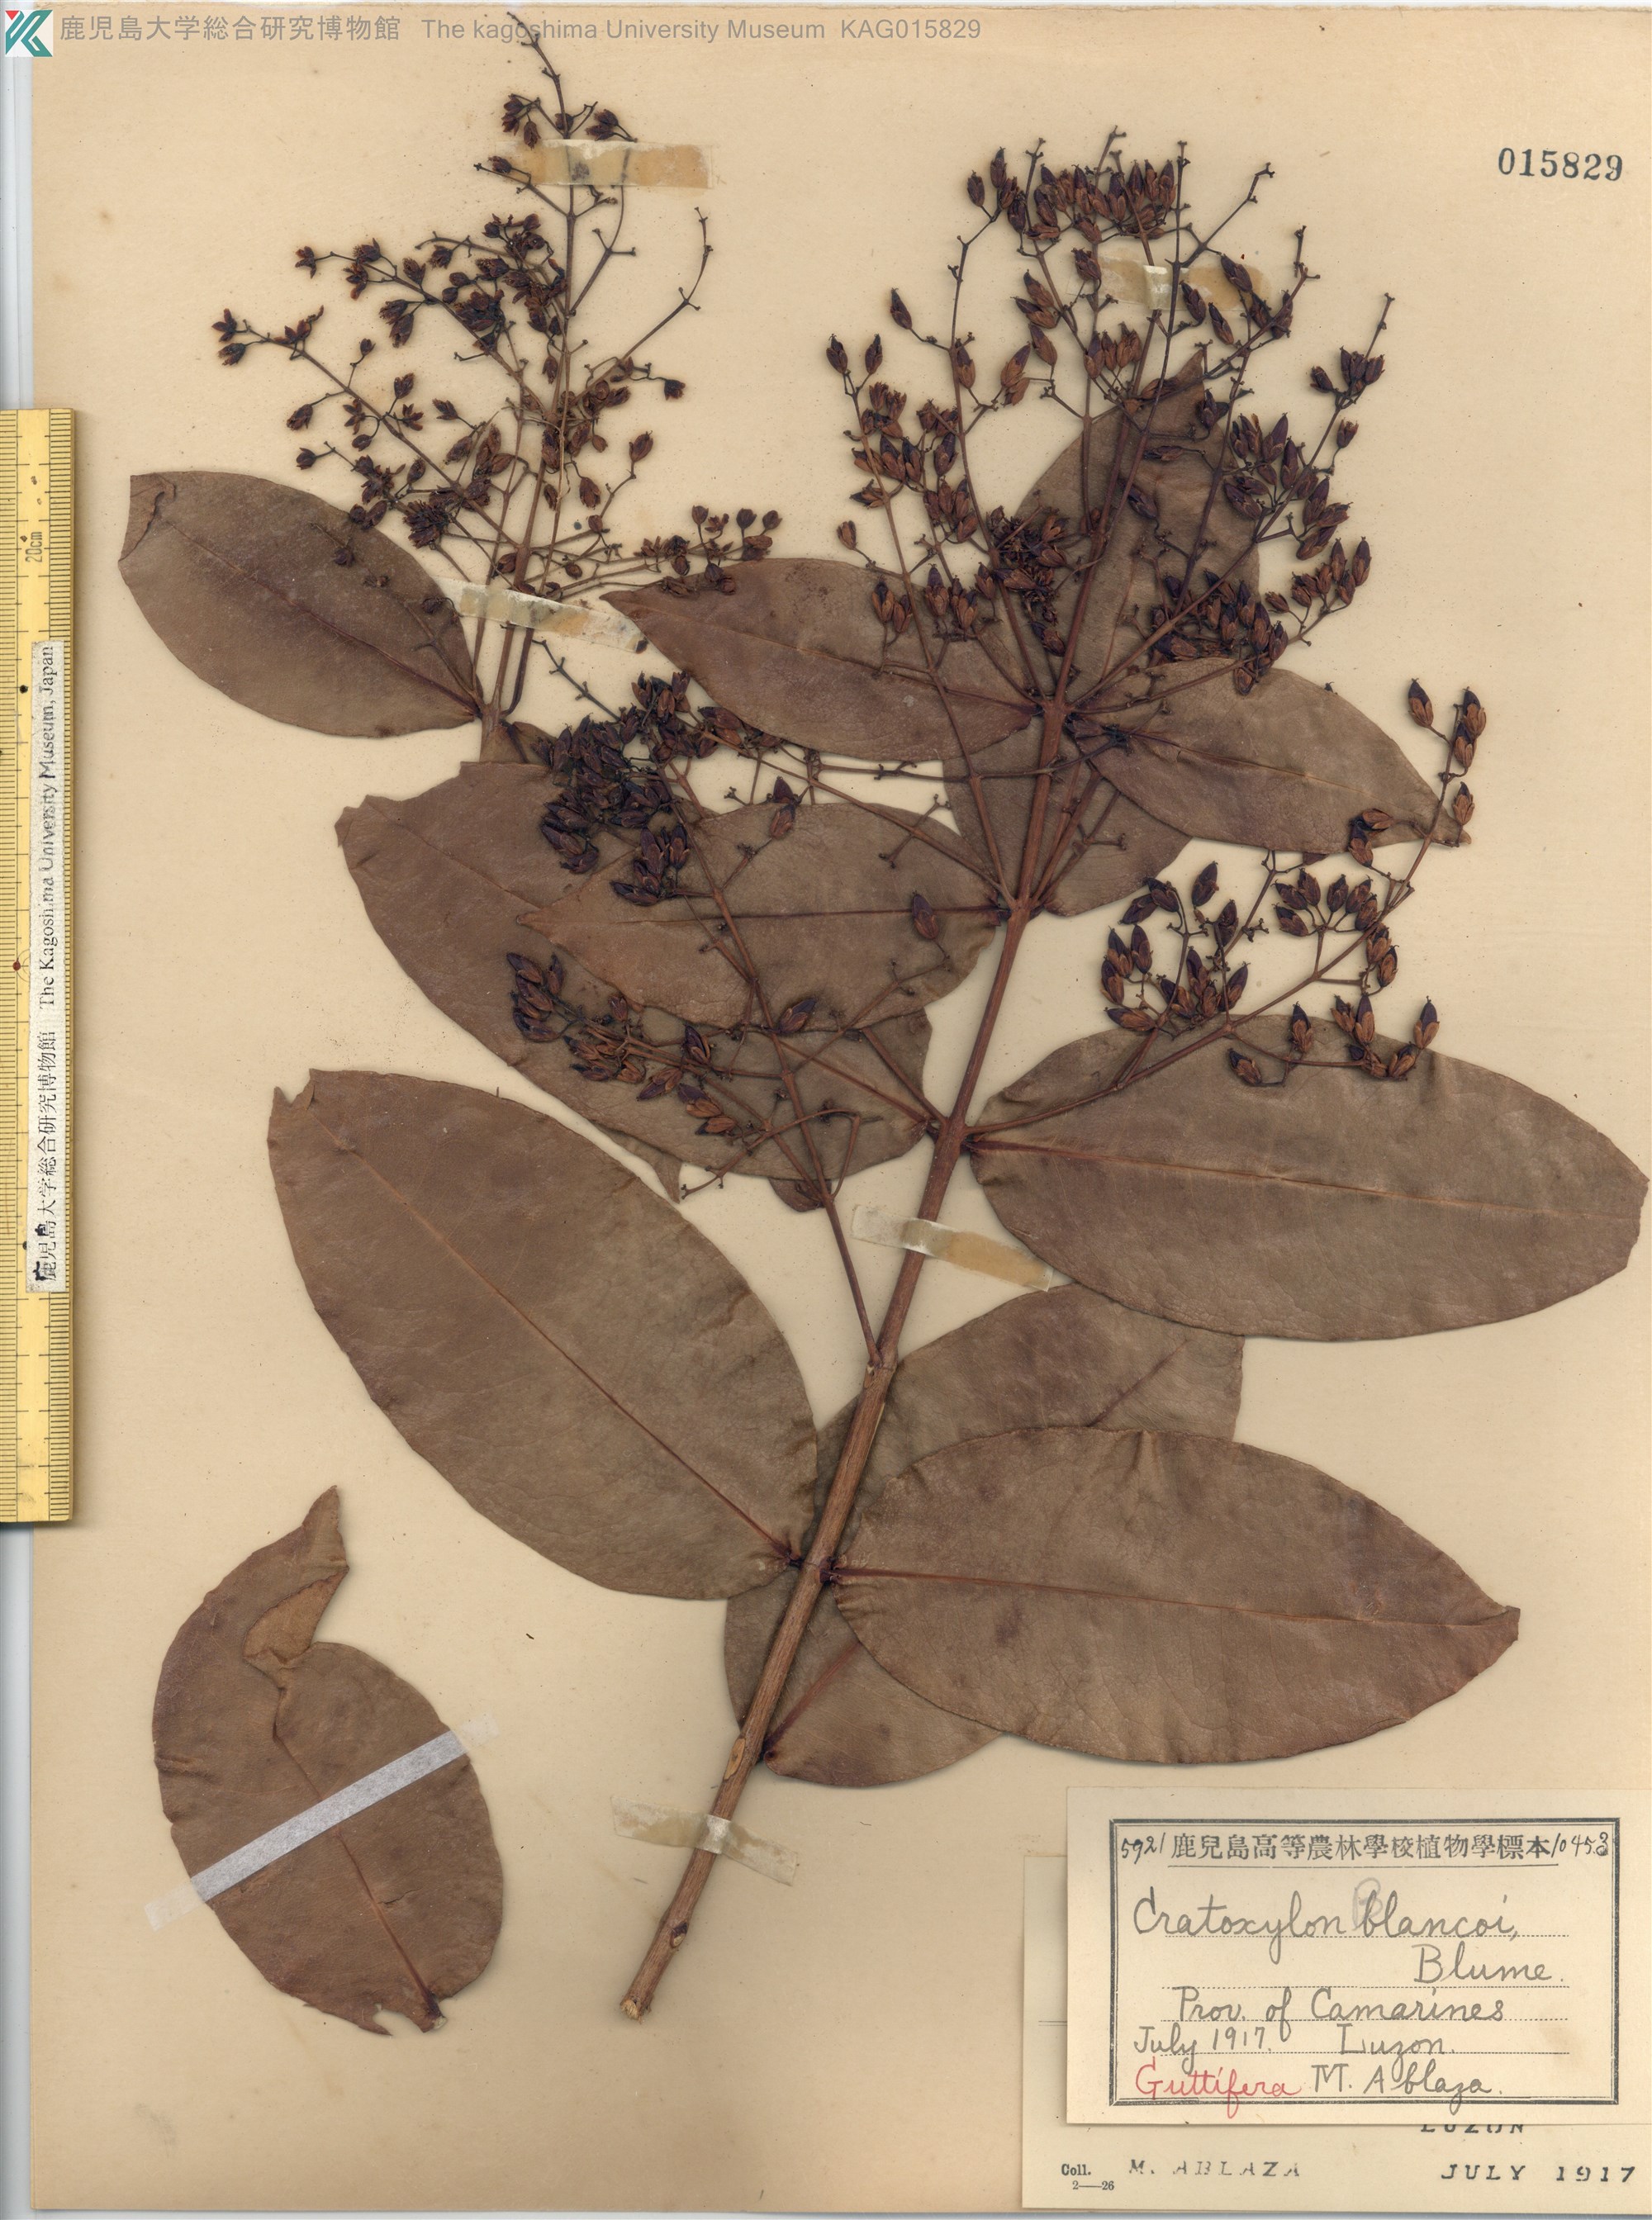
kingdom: Plantae
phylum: Tracheophyta
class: Magnoliopsida
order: Malpighiales
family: Hypericaceae
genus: Cratoxylum
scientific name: Cratoxylum sumatranum
